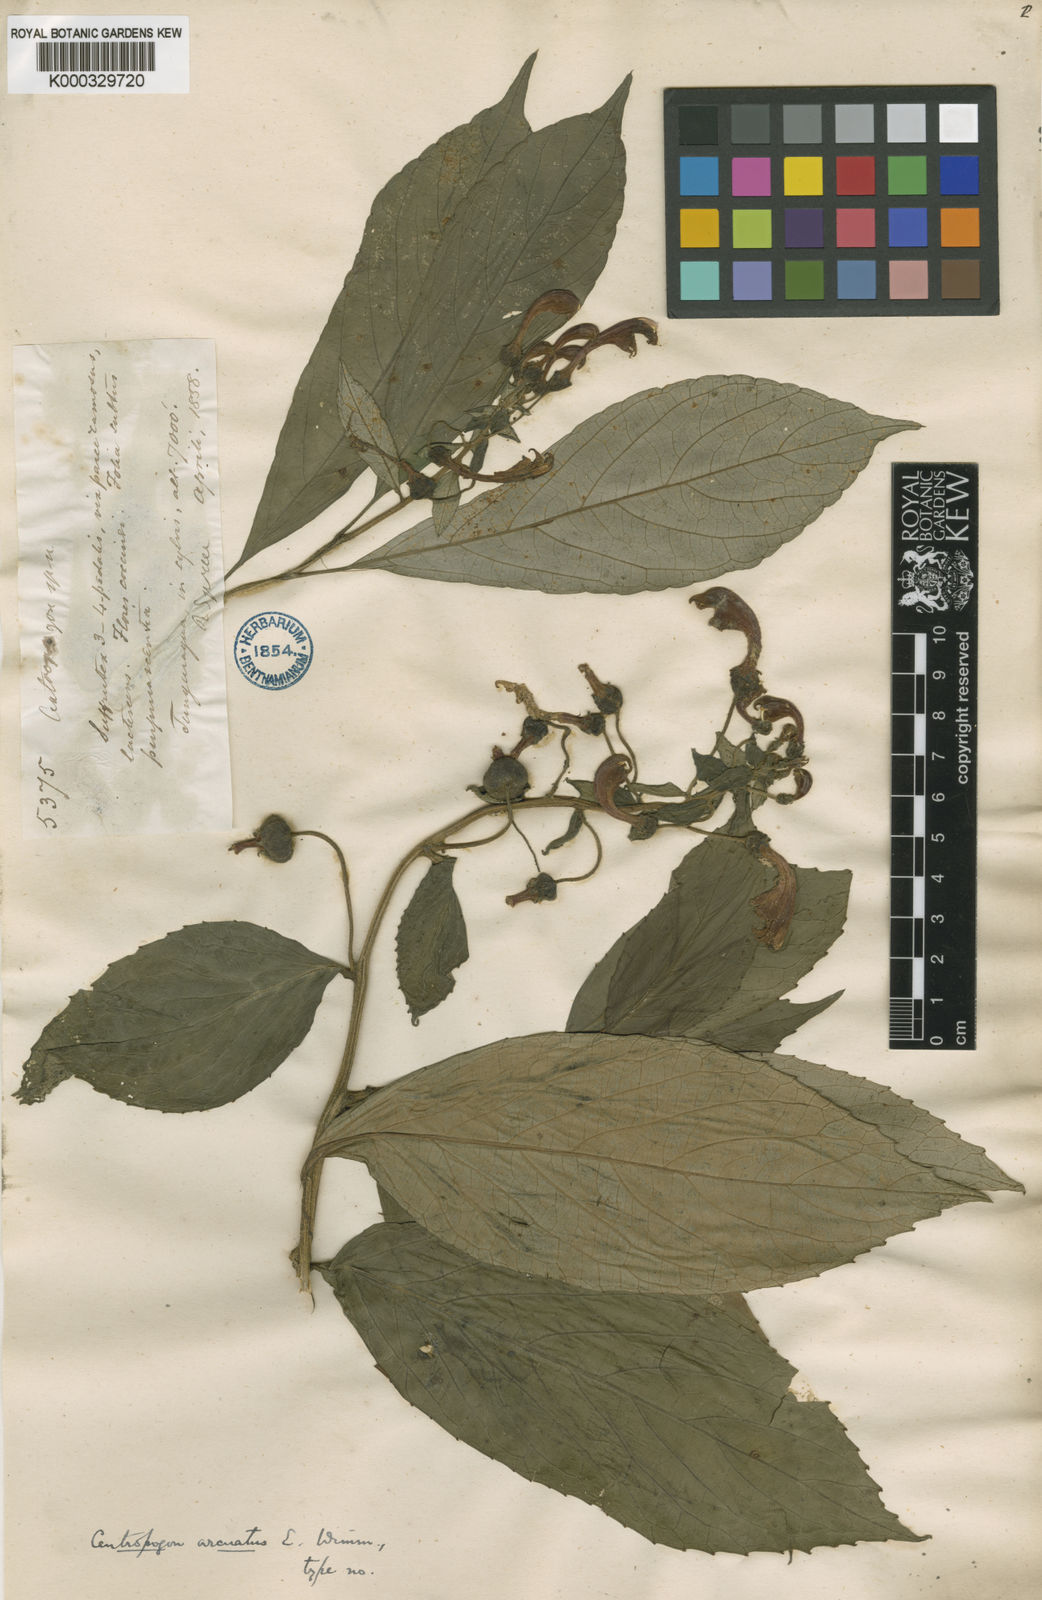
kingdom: Plantae
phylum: Tracheophyta
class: Magnoliopsida
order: Asterales
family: Campanulaceae
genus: Centropogon
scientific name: Centropogon arcuatus
